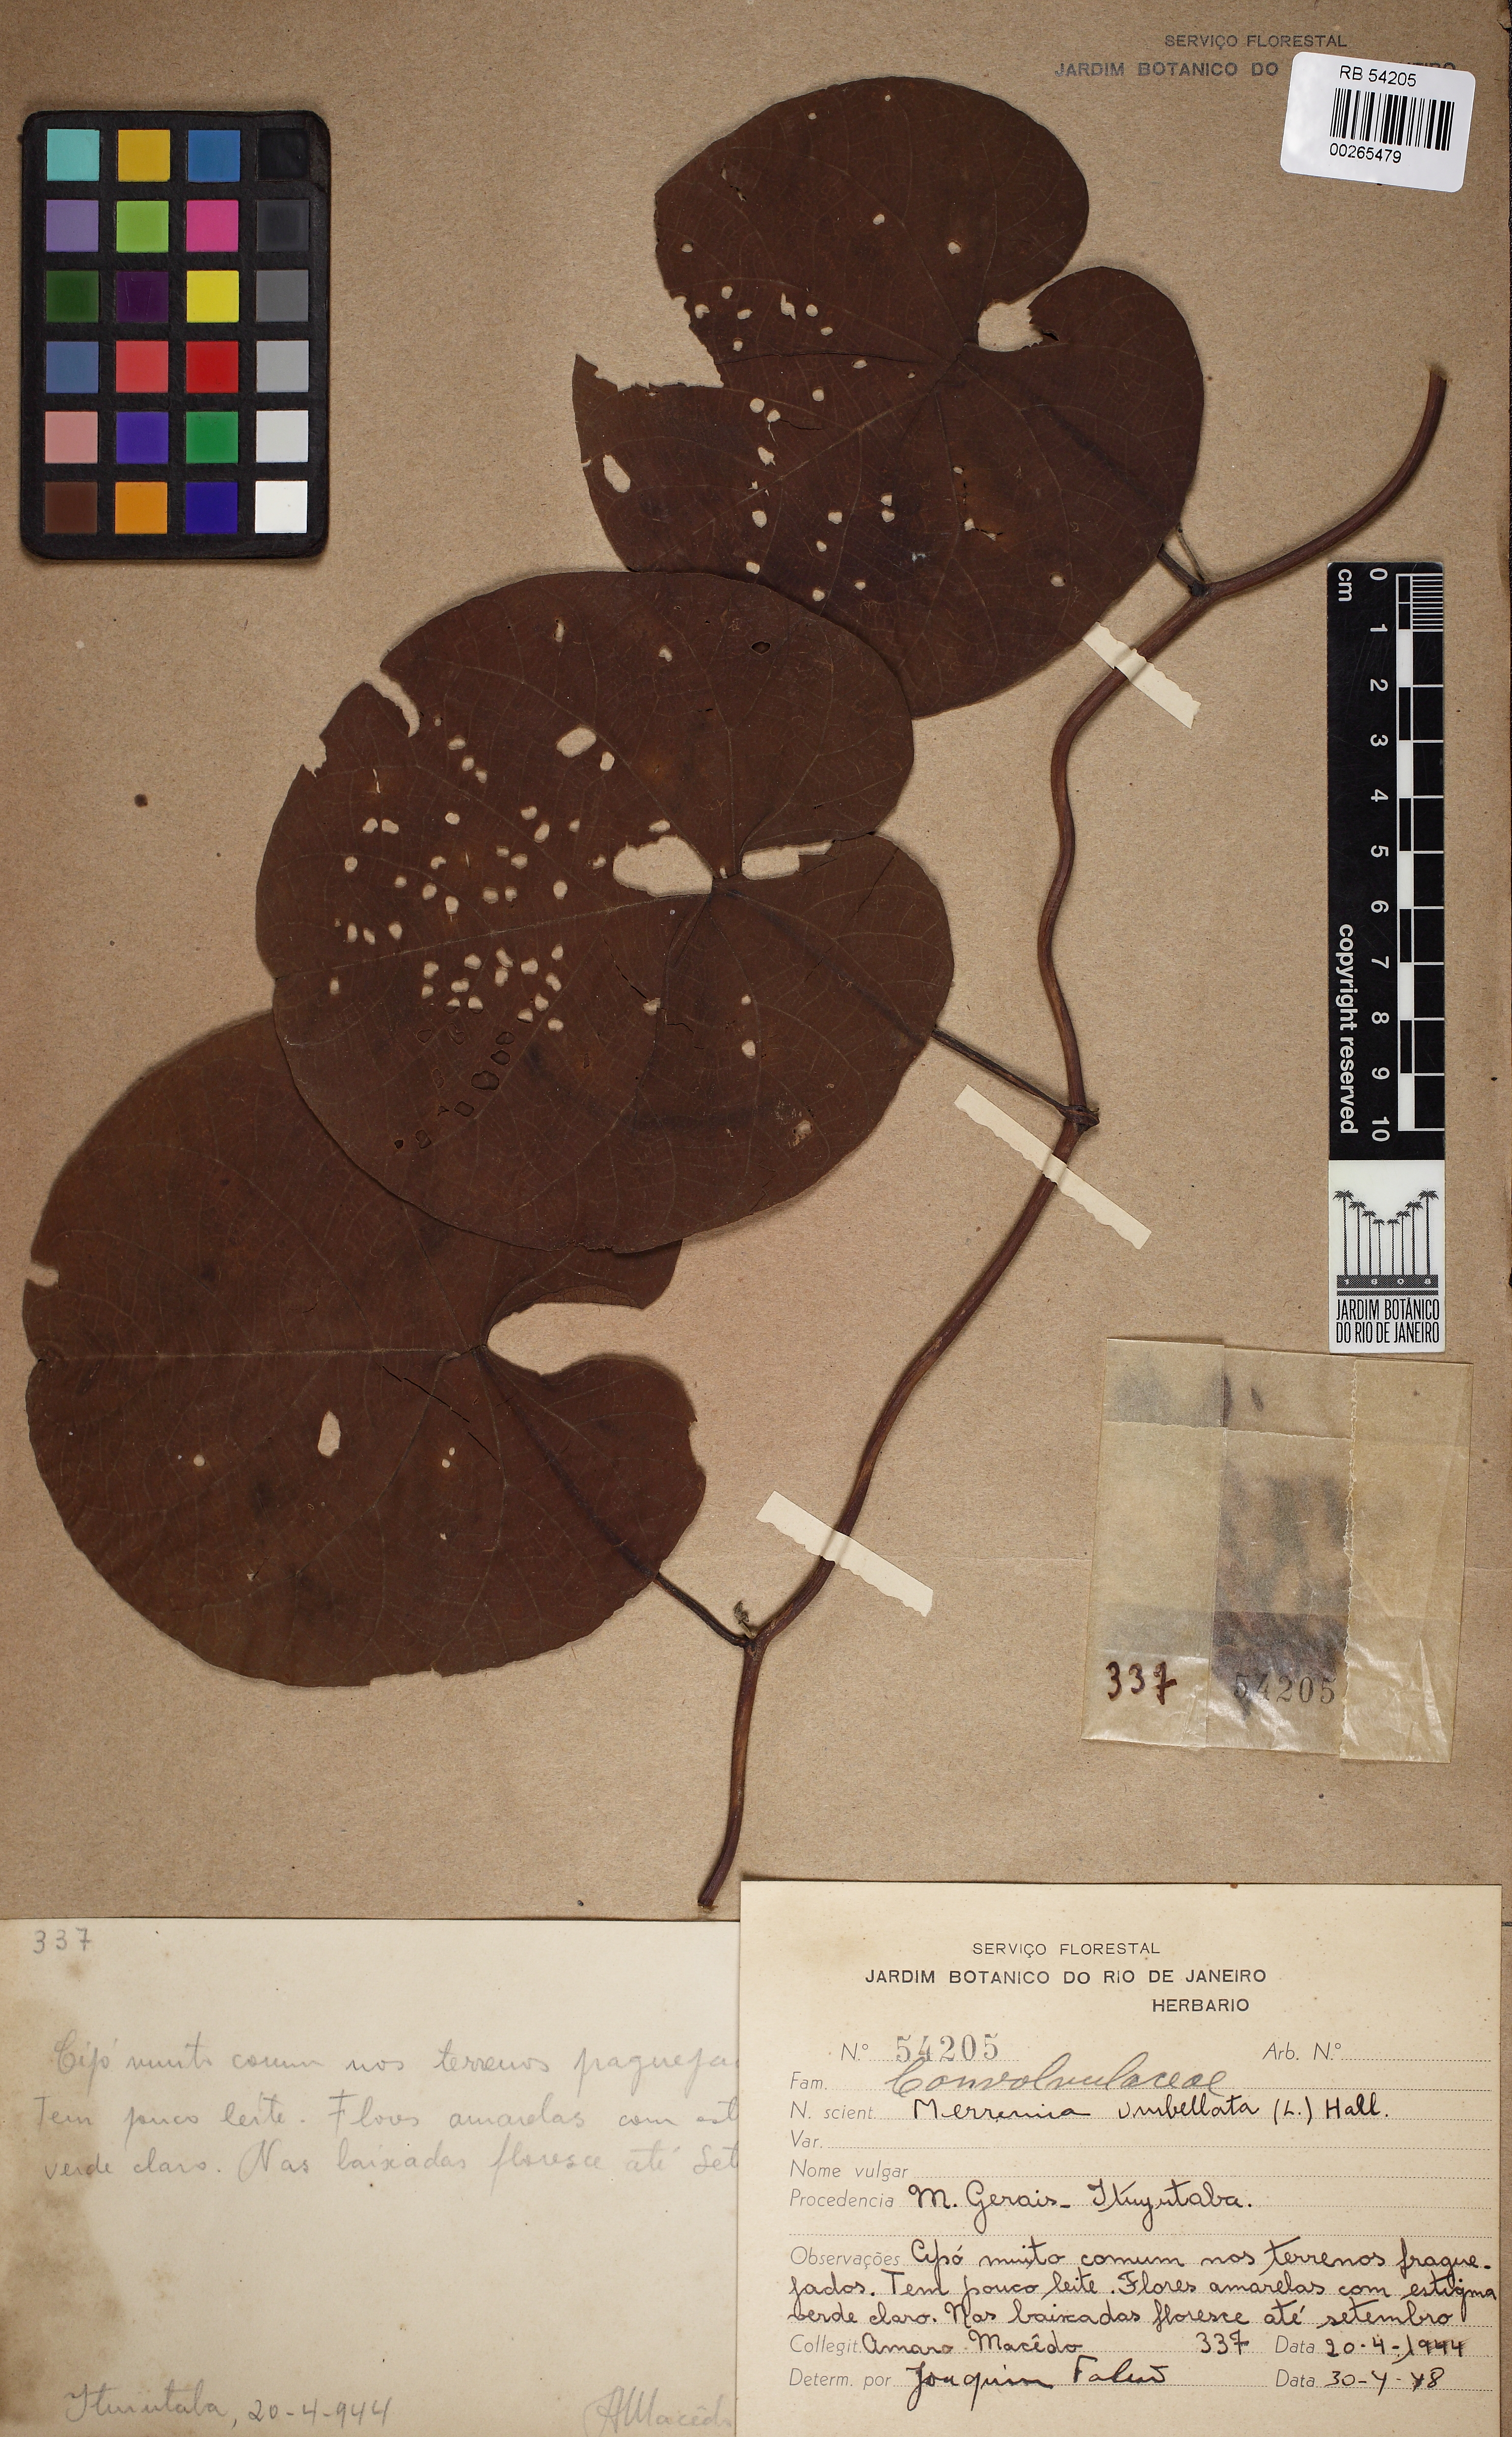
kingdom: Plantae
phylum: Tracheophyta
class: Magnoliopsida
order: Solanales
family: Convolvulaceae
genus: Camonea
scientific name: Camonea umbellata
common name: Hogvine
